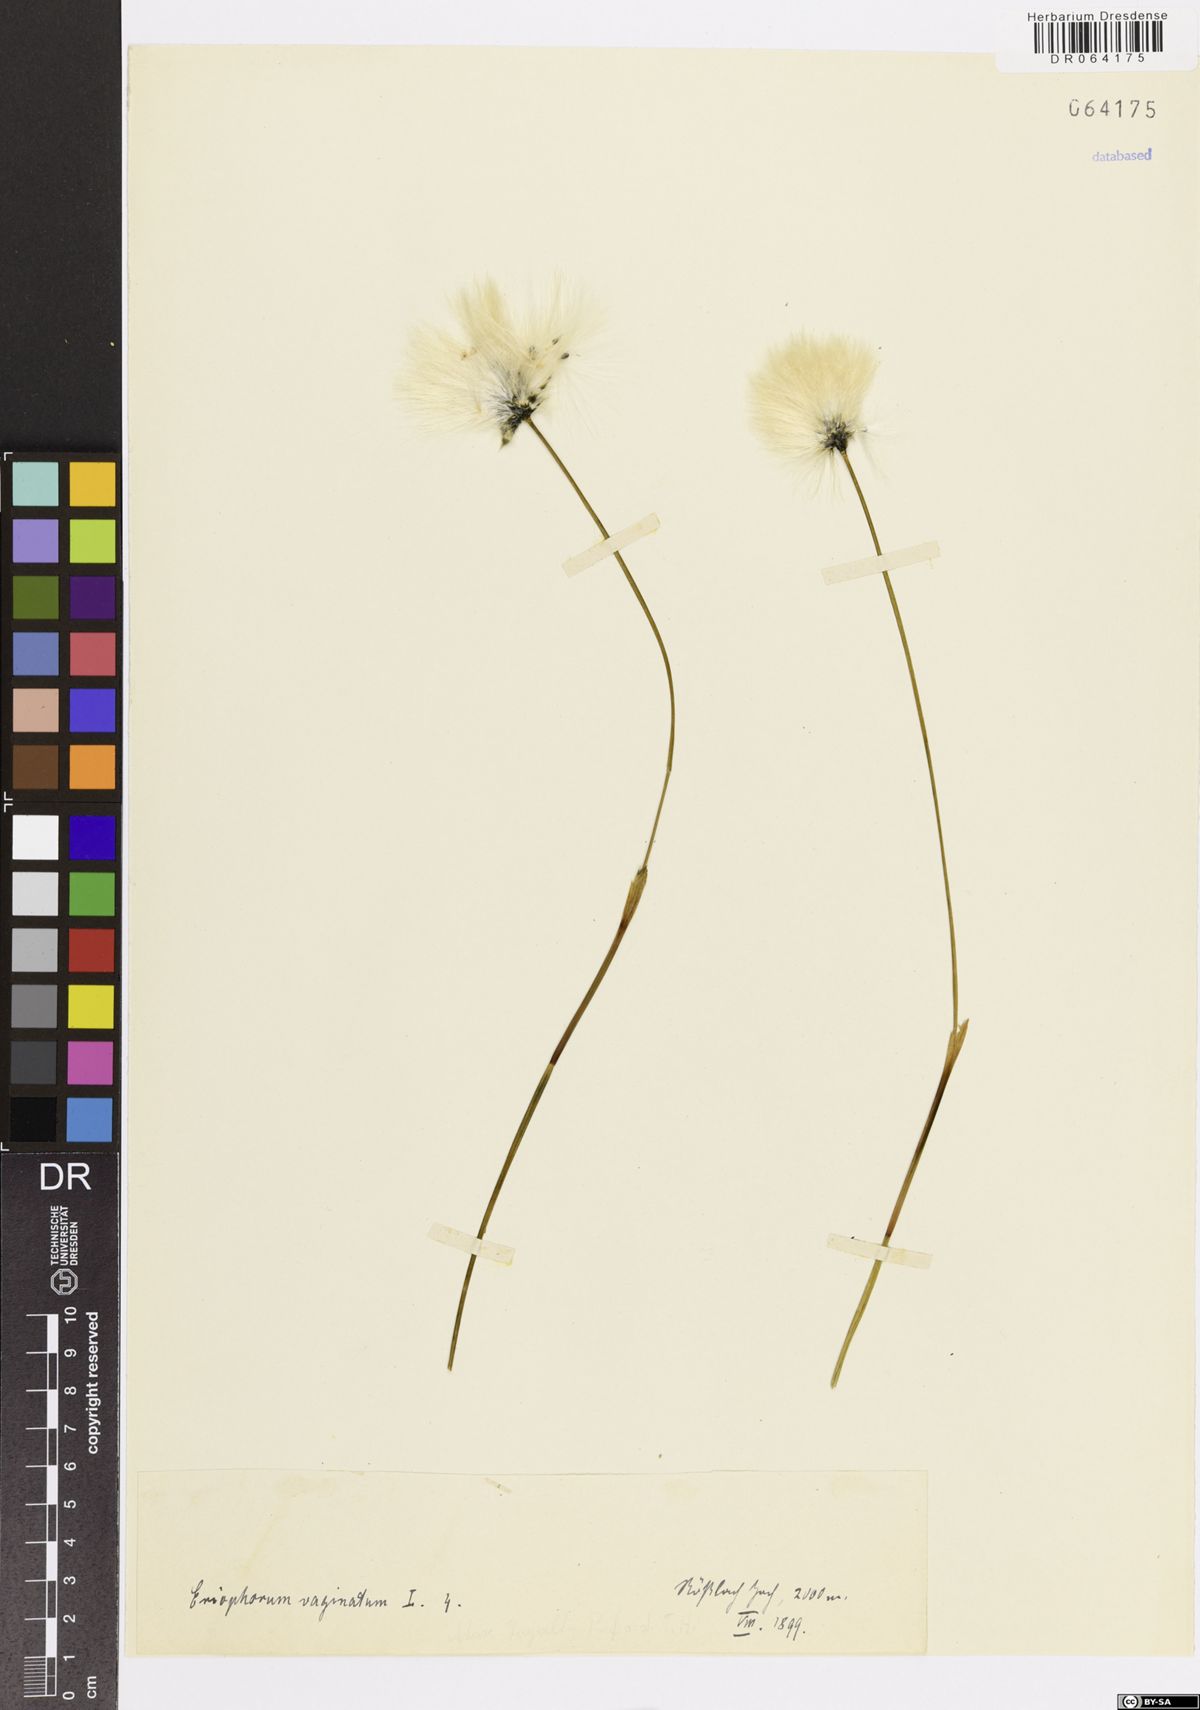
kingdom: Plantae
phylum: Tracheophyta
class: Liliopsida
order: Poales
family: Cyperaceae
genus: Eriophorum
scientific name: Eriophorum vaginatum
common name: Hare's-tail cottongrass
